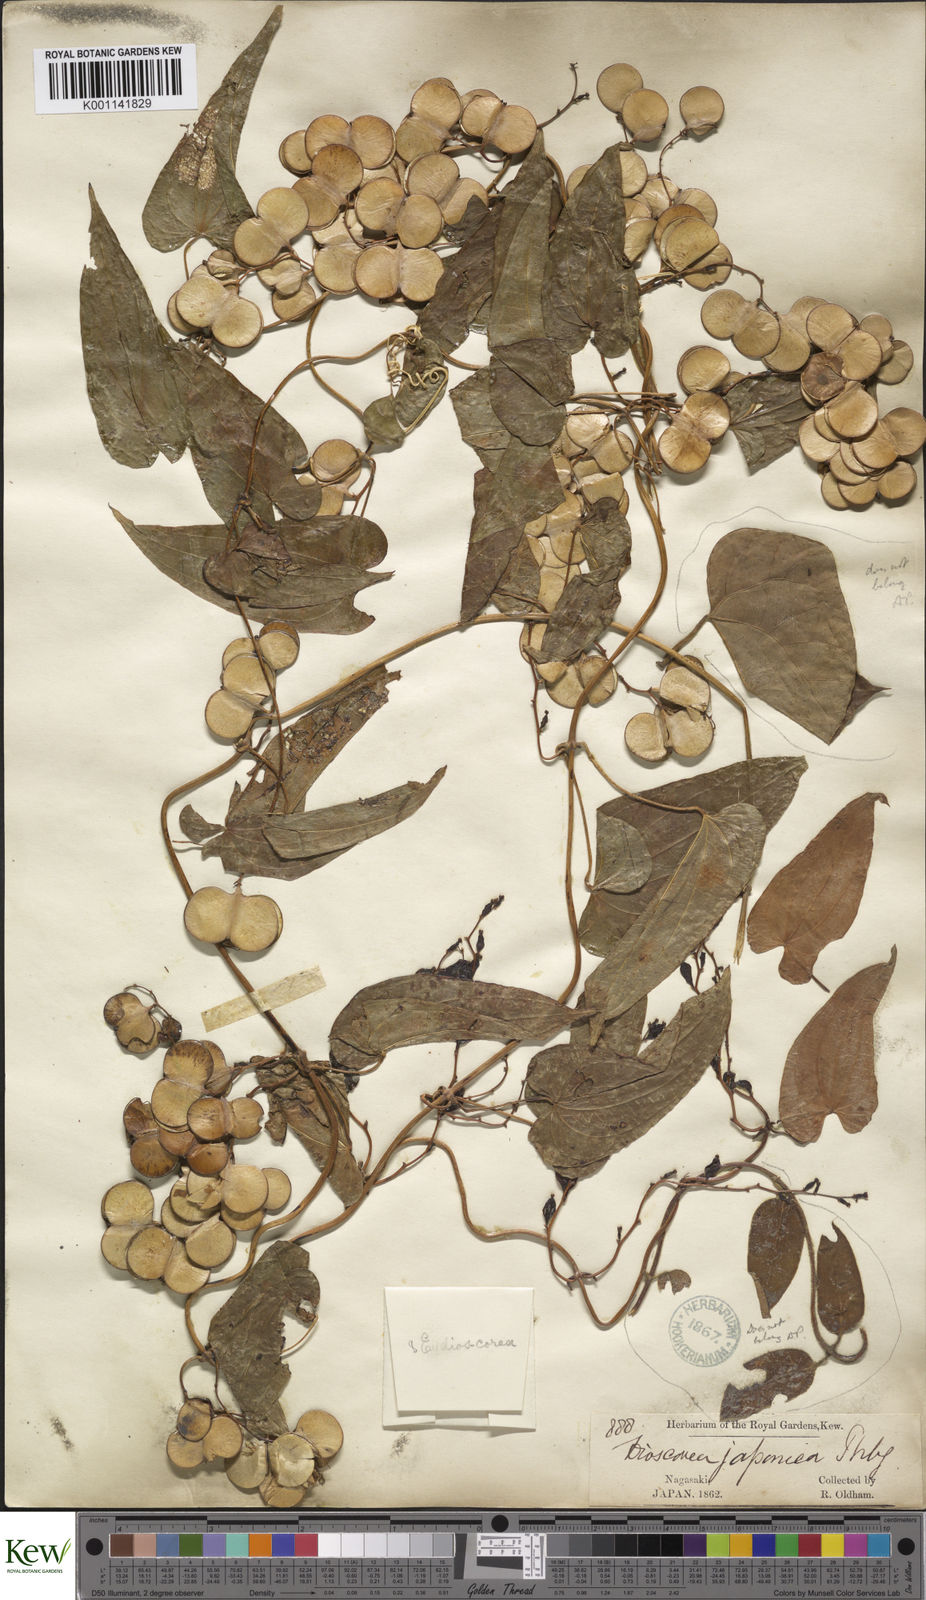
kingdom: Plantae
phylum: Tracheophyta
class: Liliopsida
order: Dioscoreales
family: Dioscoreaceae
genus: Dioscorea
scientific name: Dioscorea japonica
